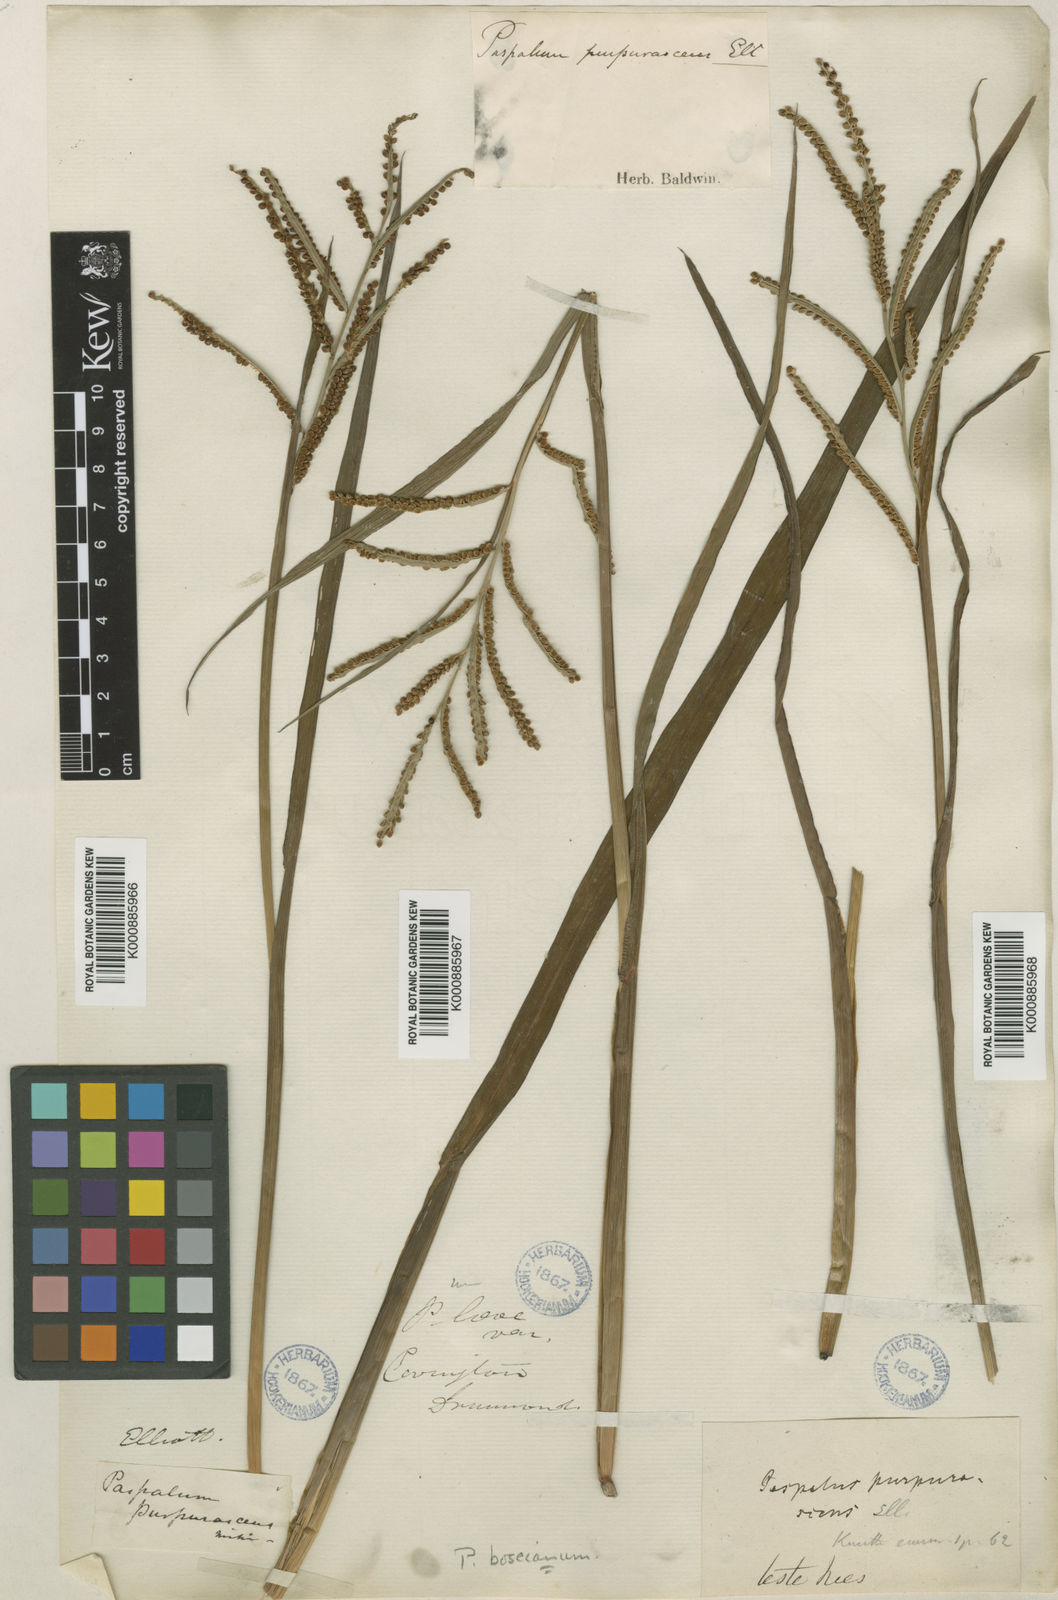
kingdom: Plantae
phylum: Tracheophyta
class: Liliopsida
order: Poales
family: Poaceae
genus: Paspalum
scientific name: Paspalum
